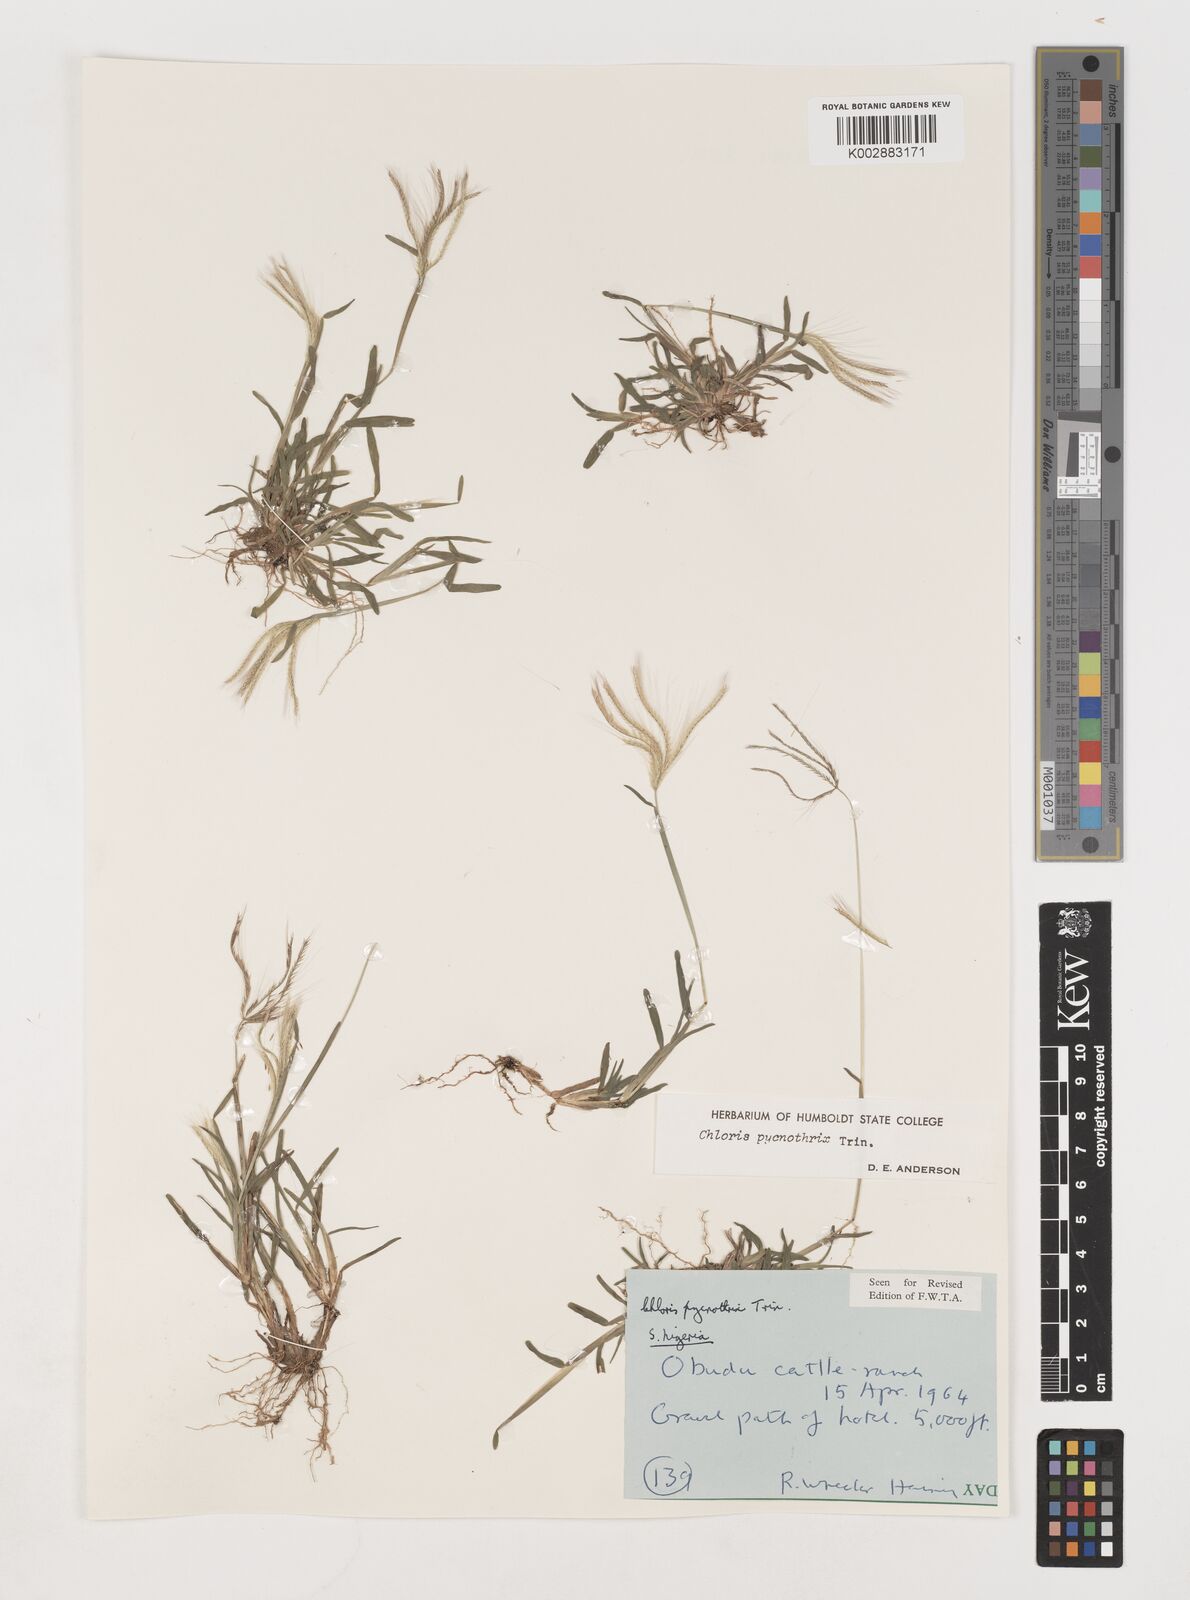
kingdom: Plantae
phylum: Tracheophyta
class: Liliopsida
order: Poales
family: Poaceae
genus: Chloris
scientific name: Chloris pycnothrix
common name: Spiderweb chloris
